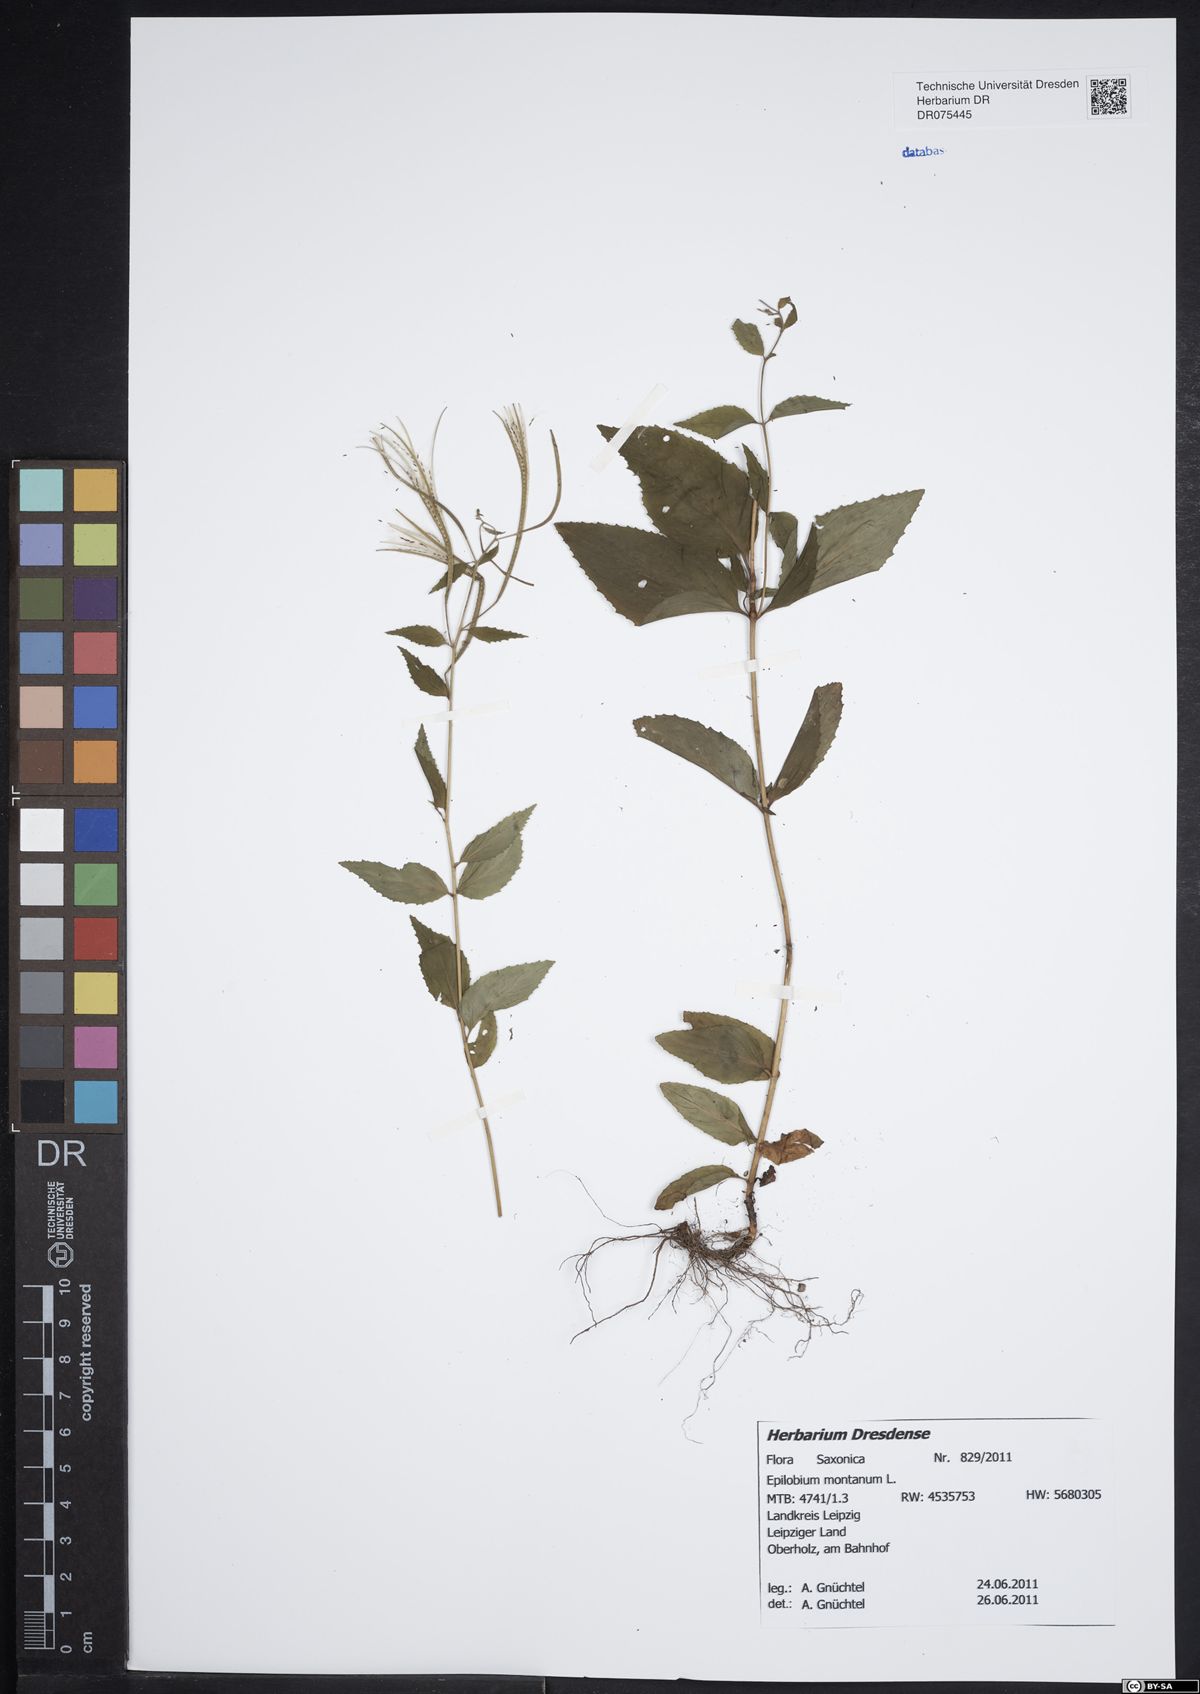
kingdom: Plantae
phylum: Tracheophyta
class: Magnoliopsida
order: Myrtales
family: Onagraceae
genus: Epilobium
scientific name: Epilobium montanum
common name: Broad-leaved willowherb
